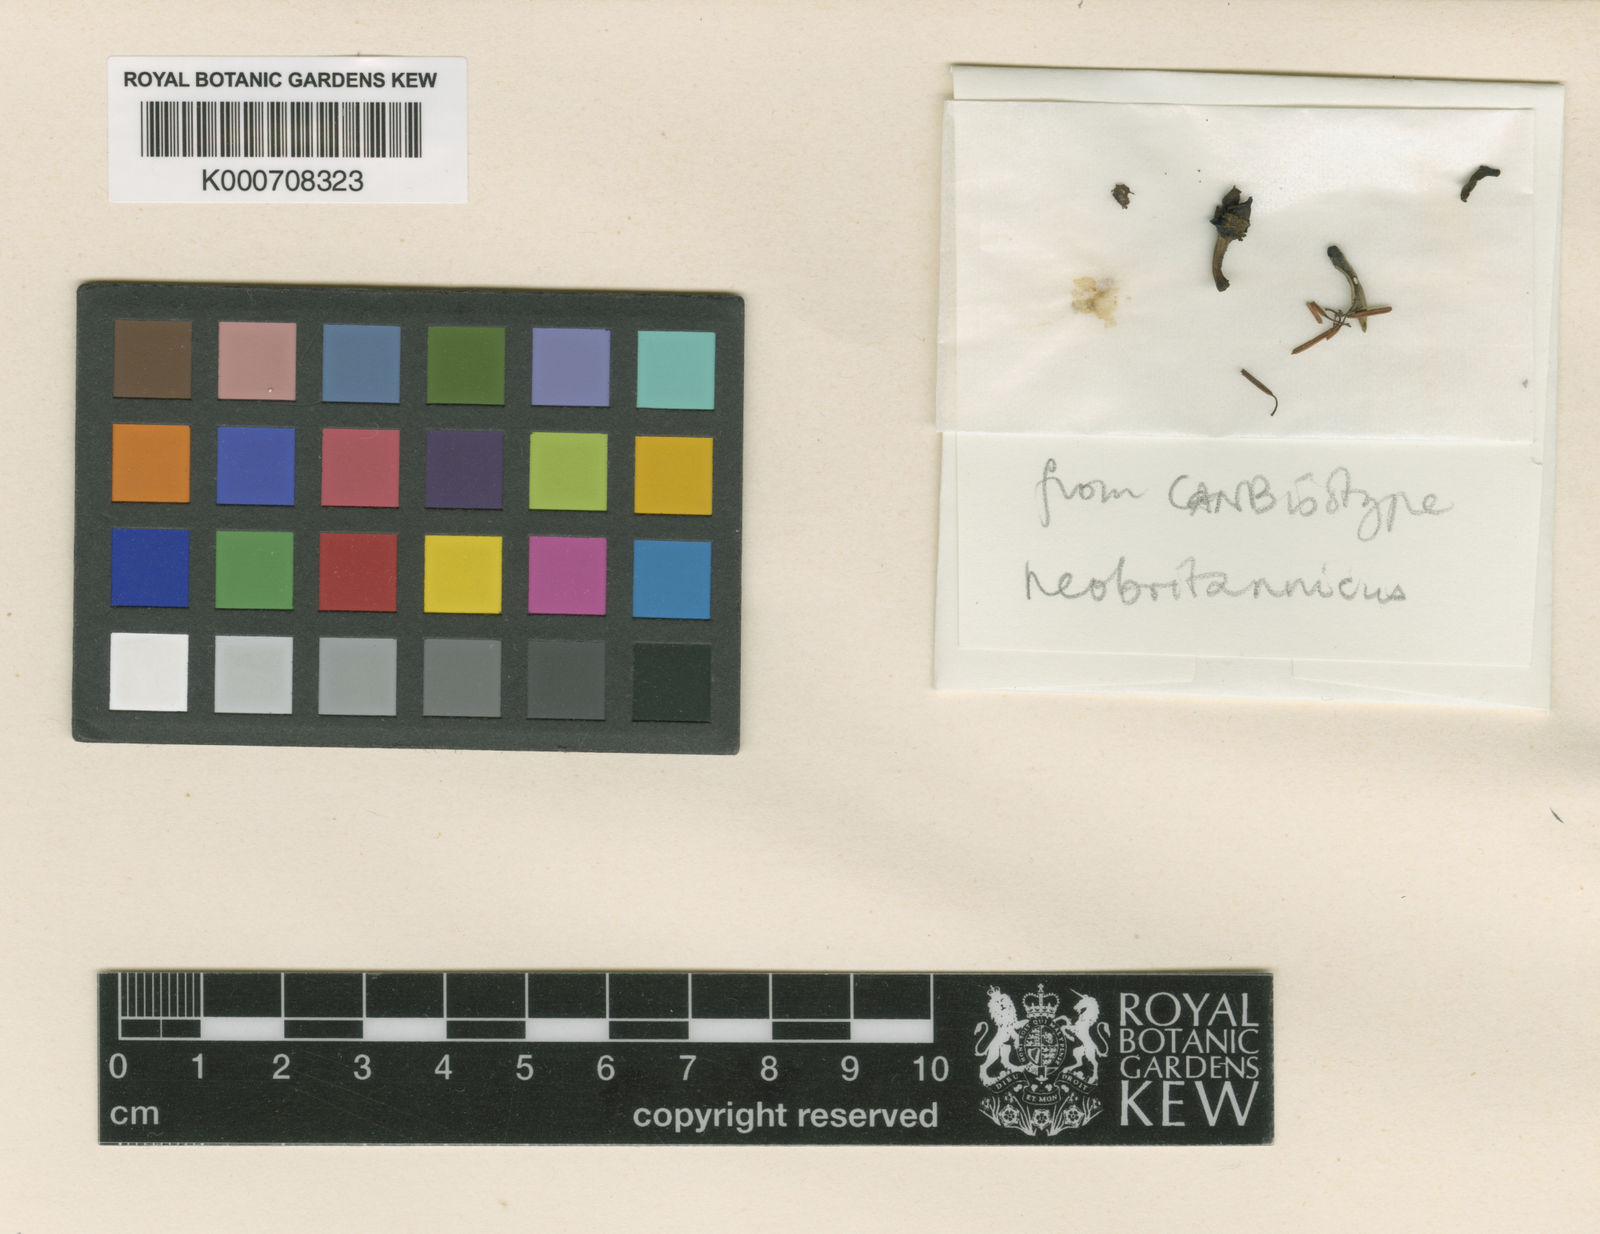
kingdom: Plantae
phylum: Tracheophyta
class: Magnoliopsida
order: Oxalidales
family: Elaeocarpaceae
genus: Elaeocarpus
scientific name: Elaeocarpus neobritannicus
